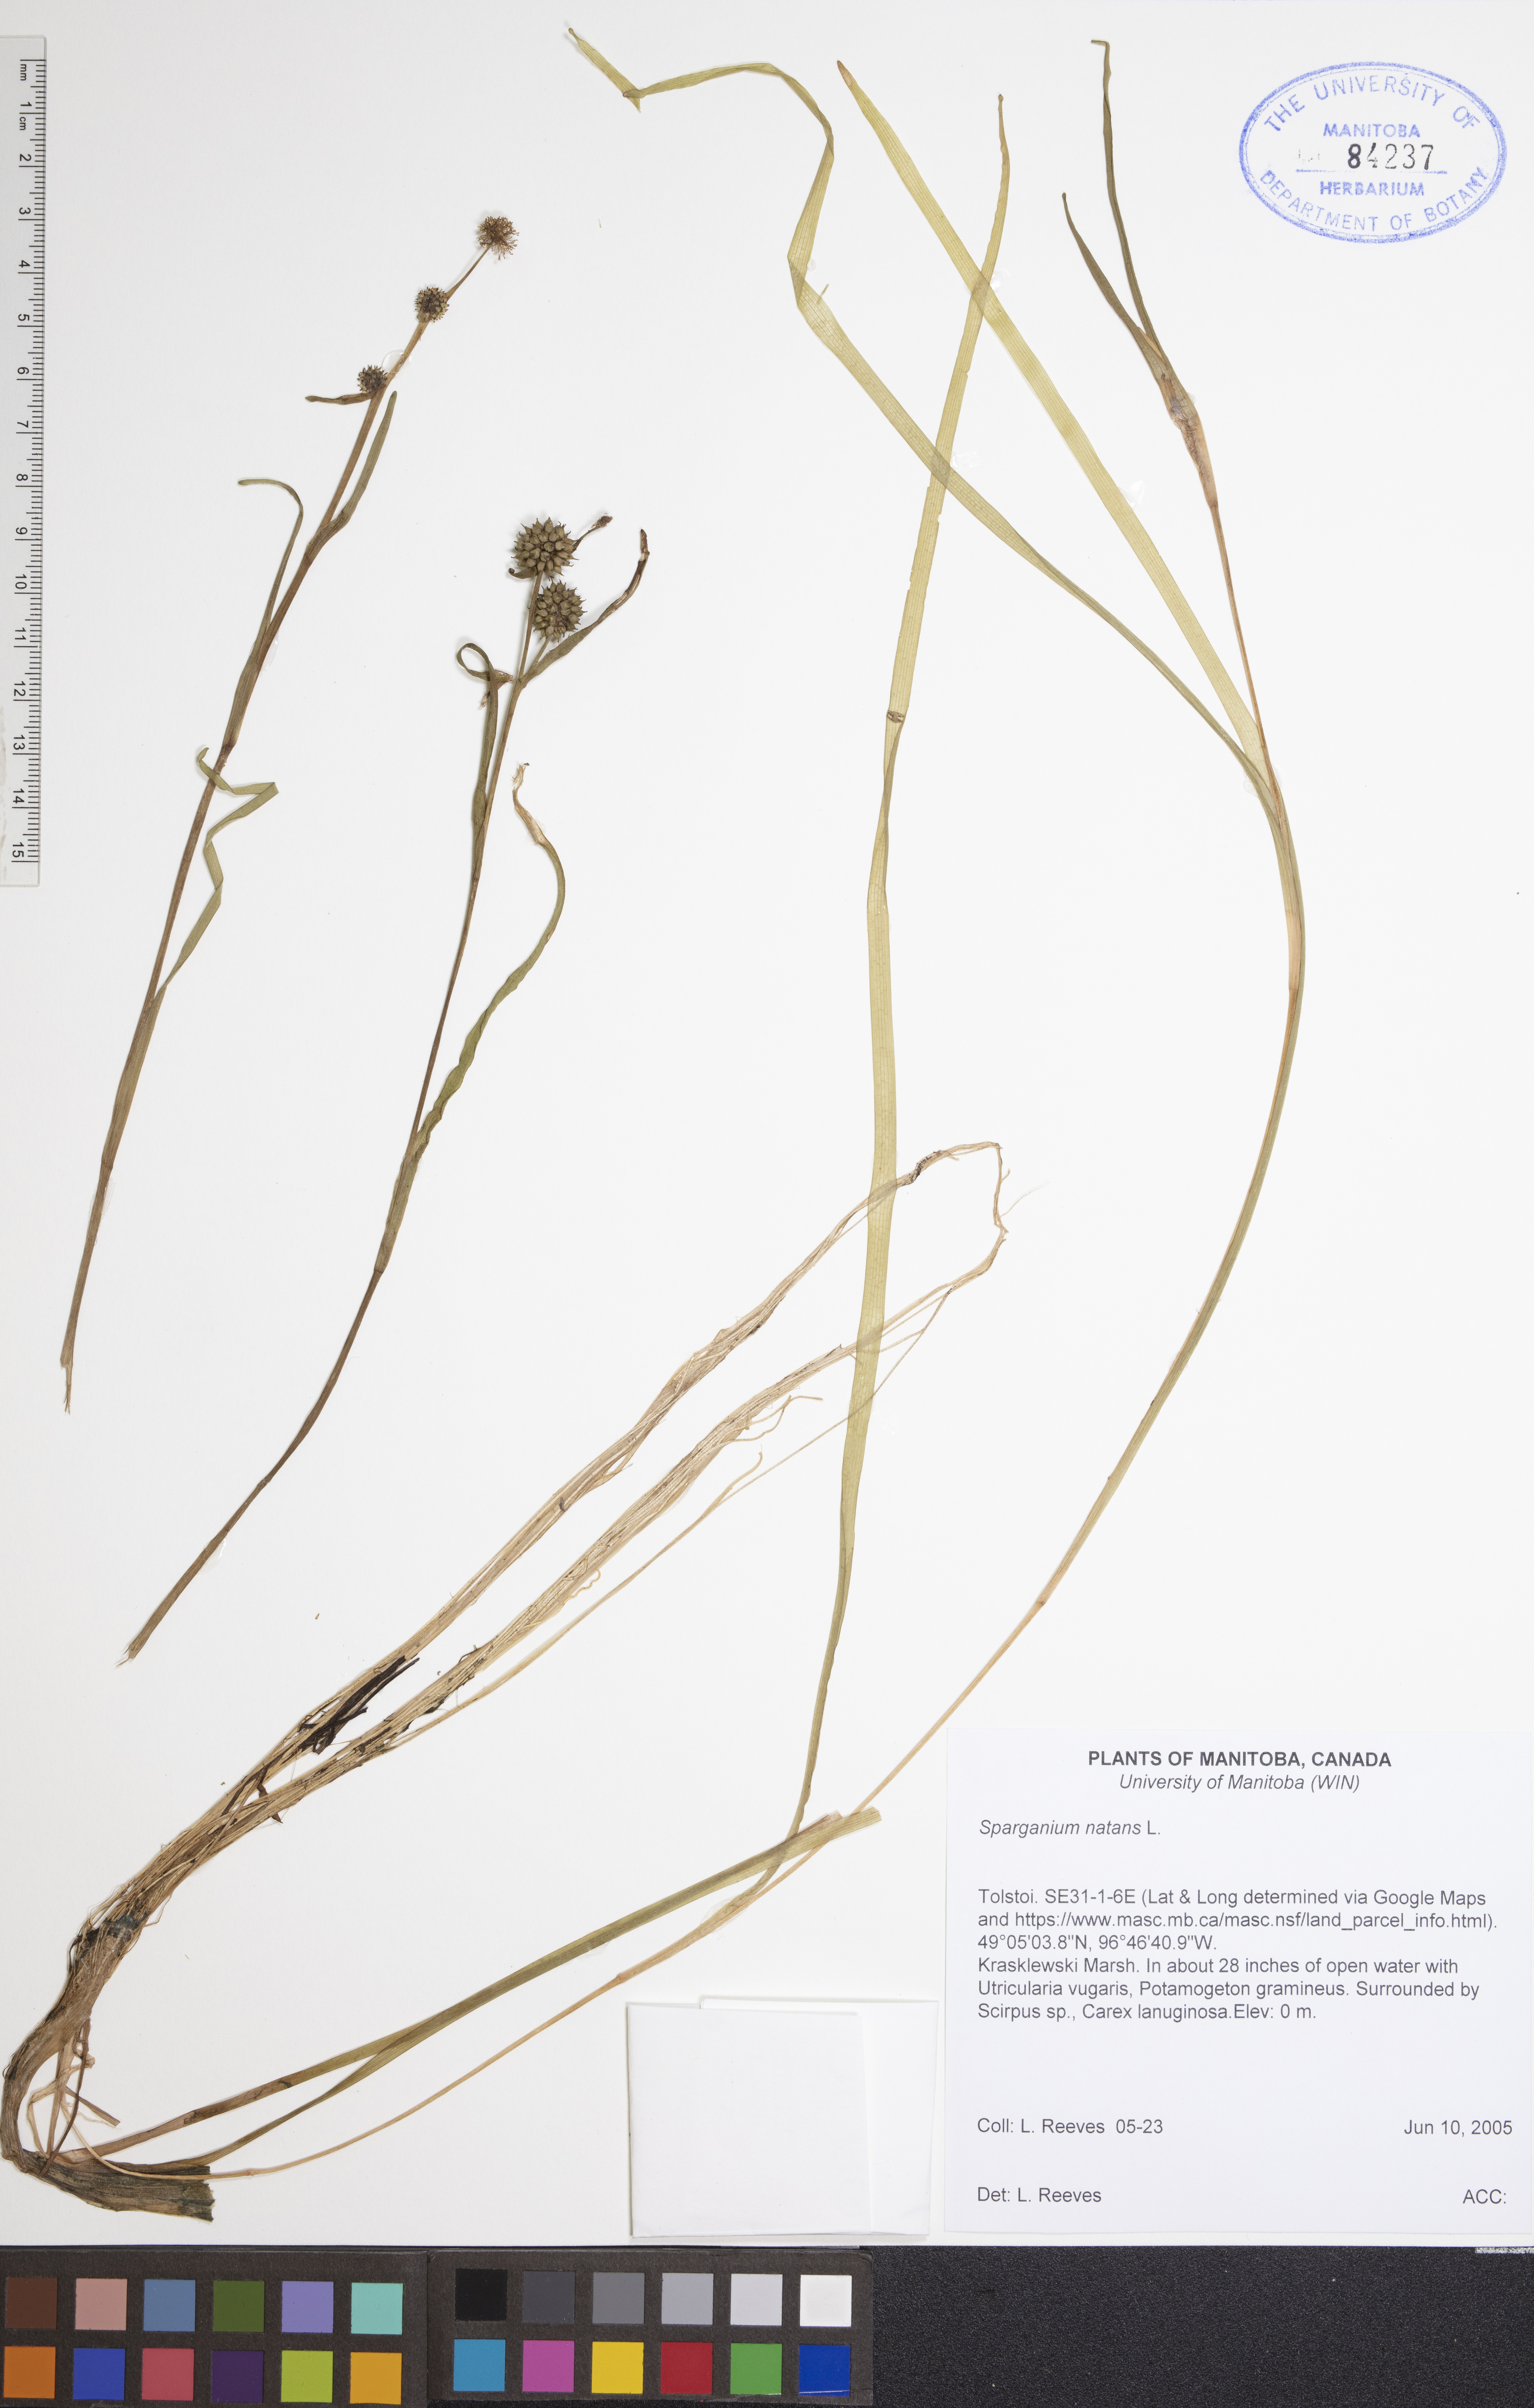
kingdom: Plantae
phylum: Tracheophyta
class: Liliopsida
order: Poales
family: Typhaceae
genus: Sparganium
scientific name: Sparganium natans
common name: Least bur-reed
